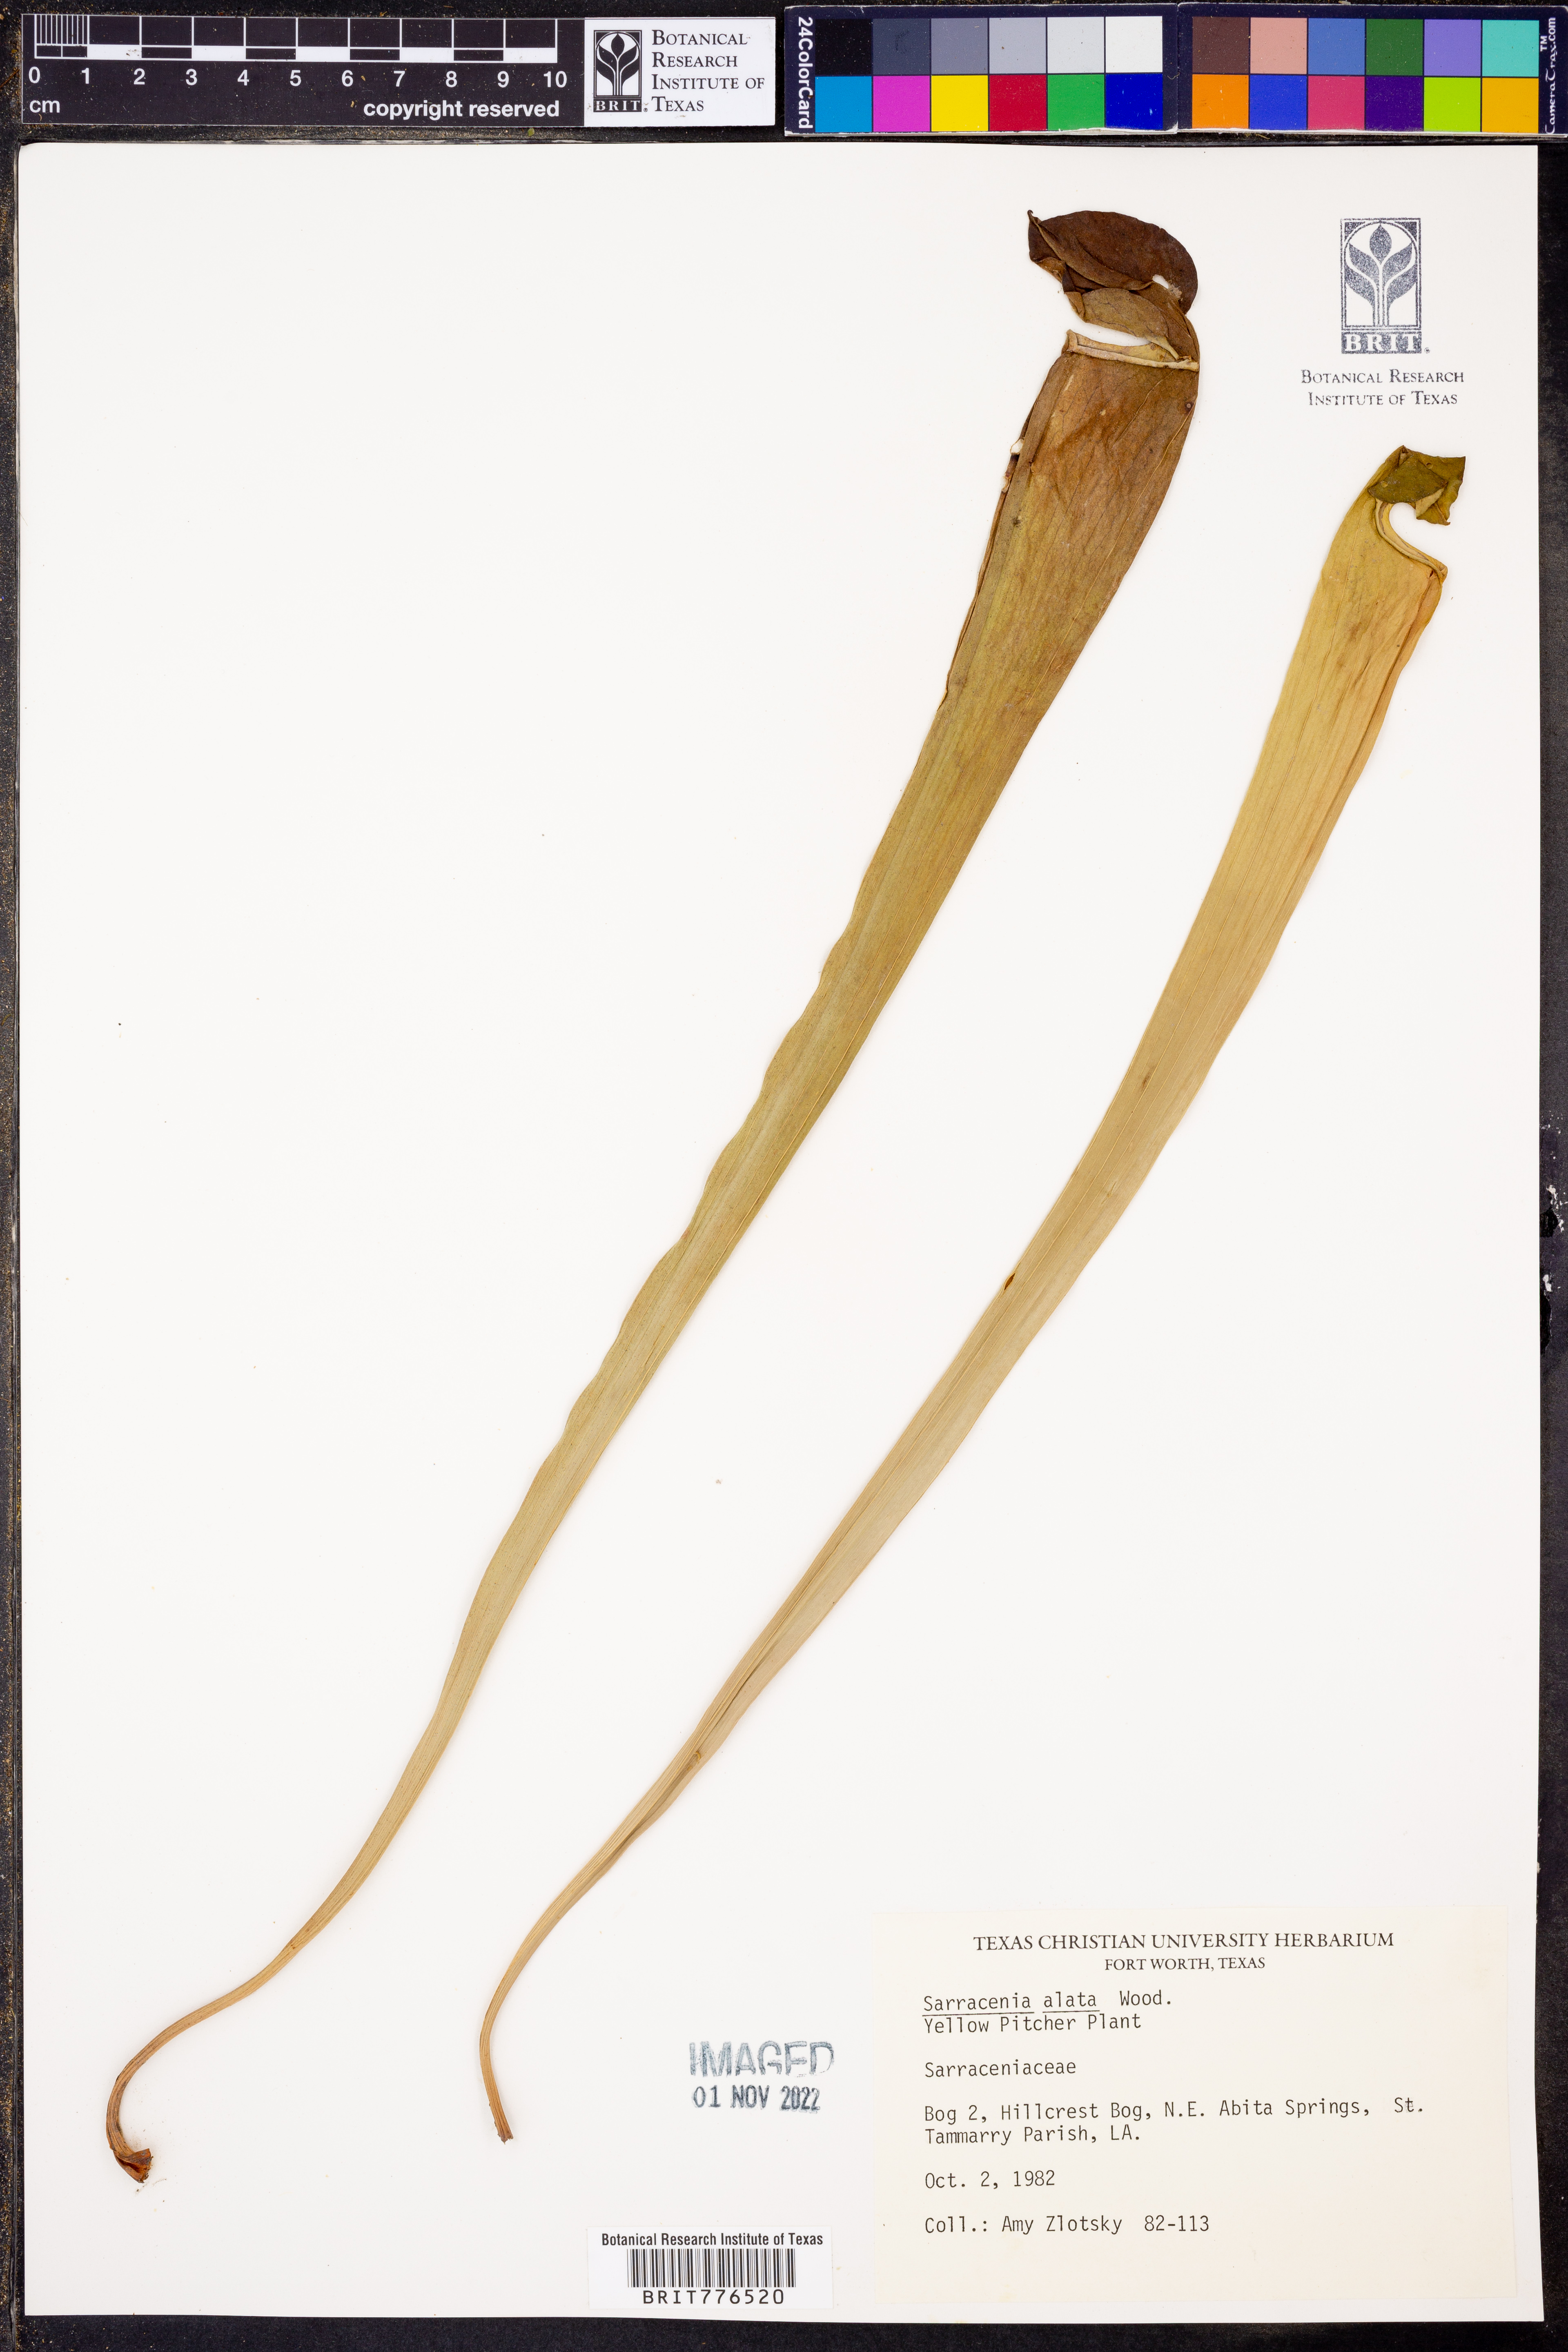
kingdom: Plantae
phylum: Tracheophyta
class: Magnoliopsida
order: Ericales
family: Sarraceniaceae
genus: Sarracenia
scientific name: Sarracenia alata
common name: Yellow trumpets
